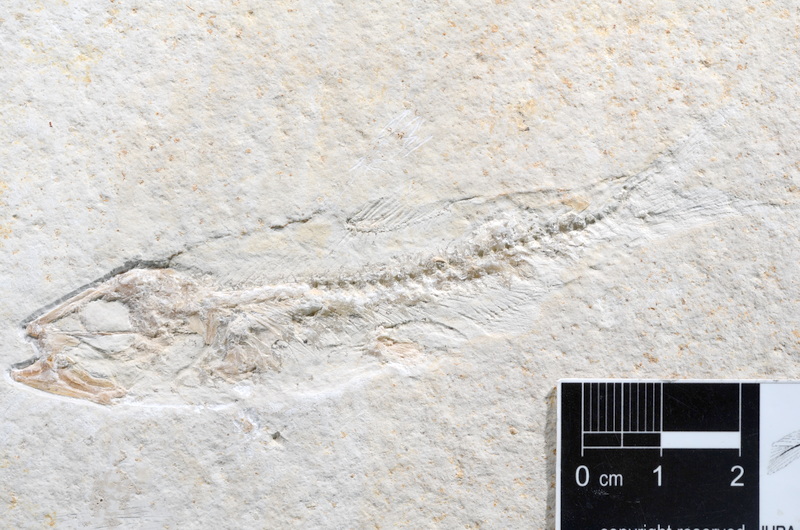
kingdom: Animalia
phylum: Chordata
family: Ascalaboidae
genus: Ascalabos
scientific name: Ascalabos voithii
